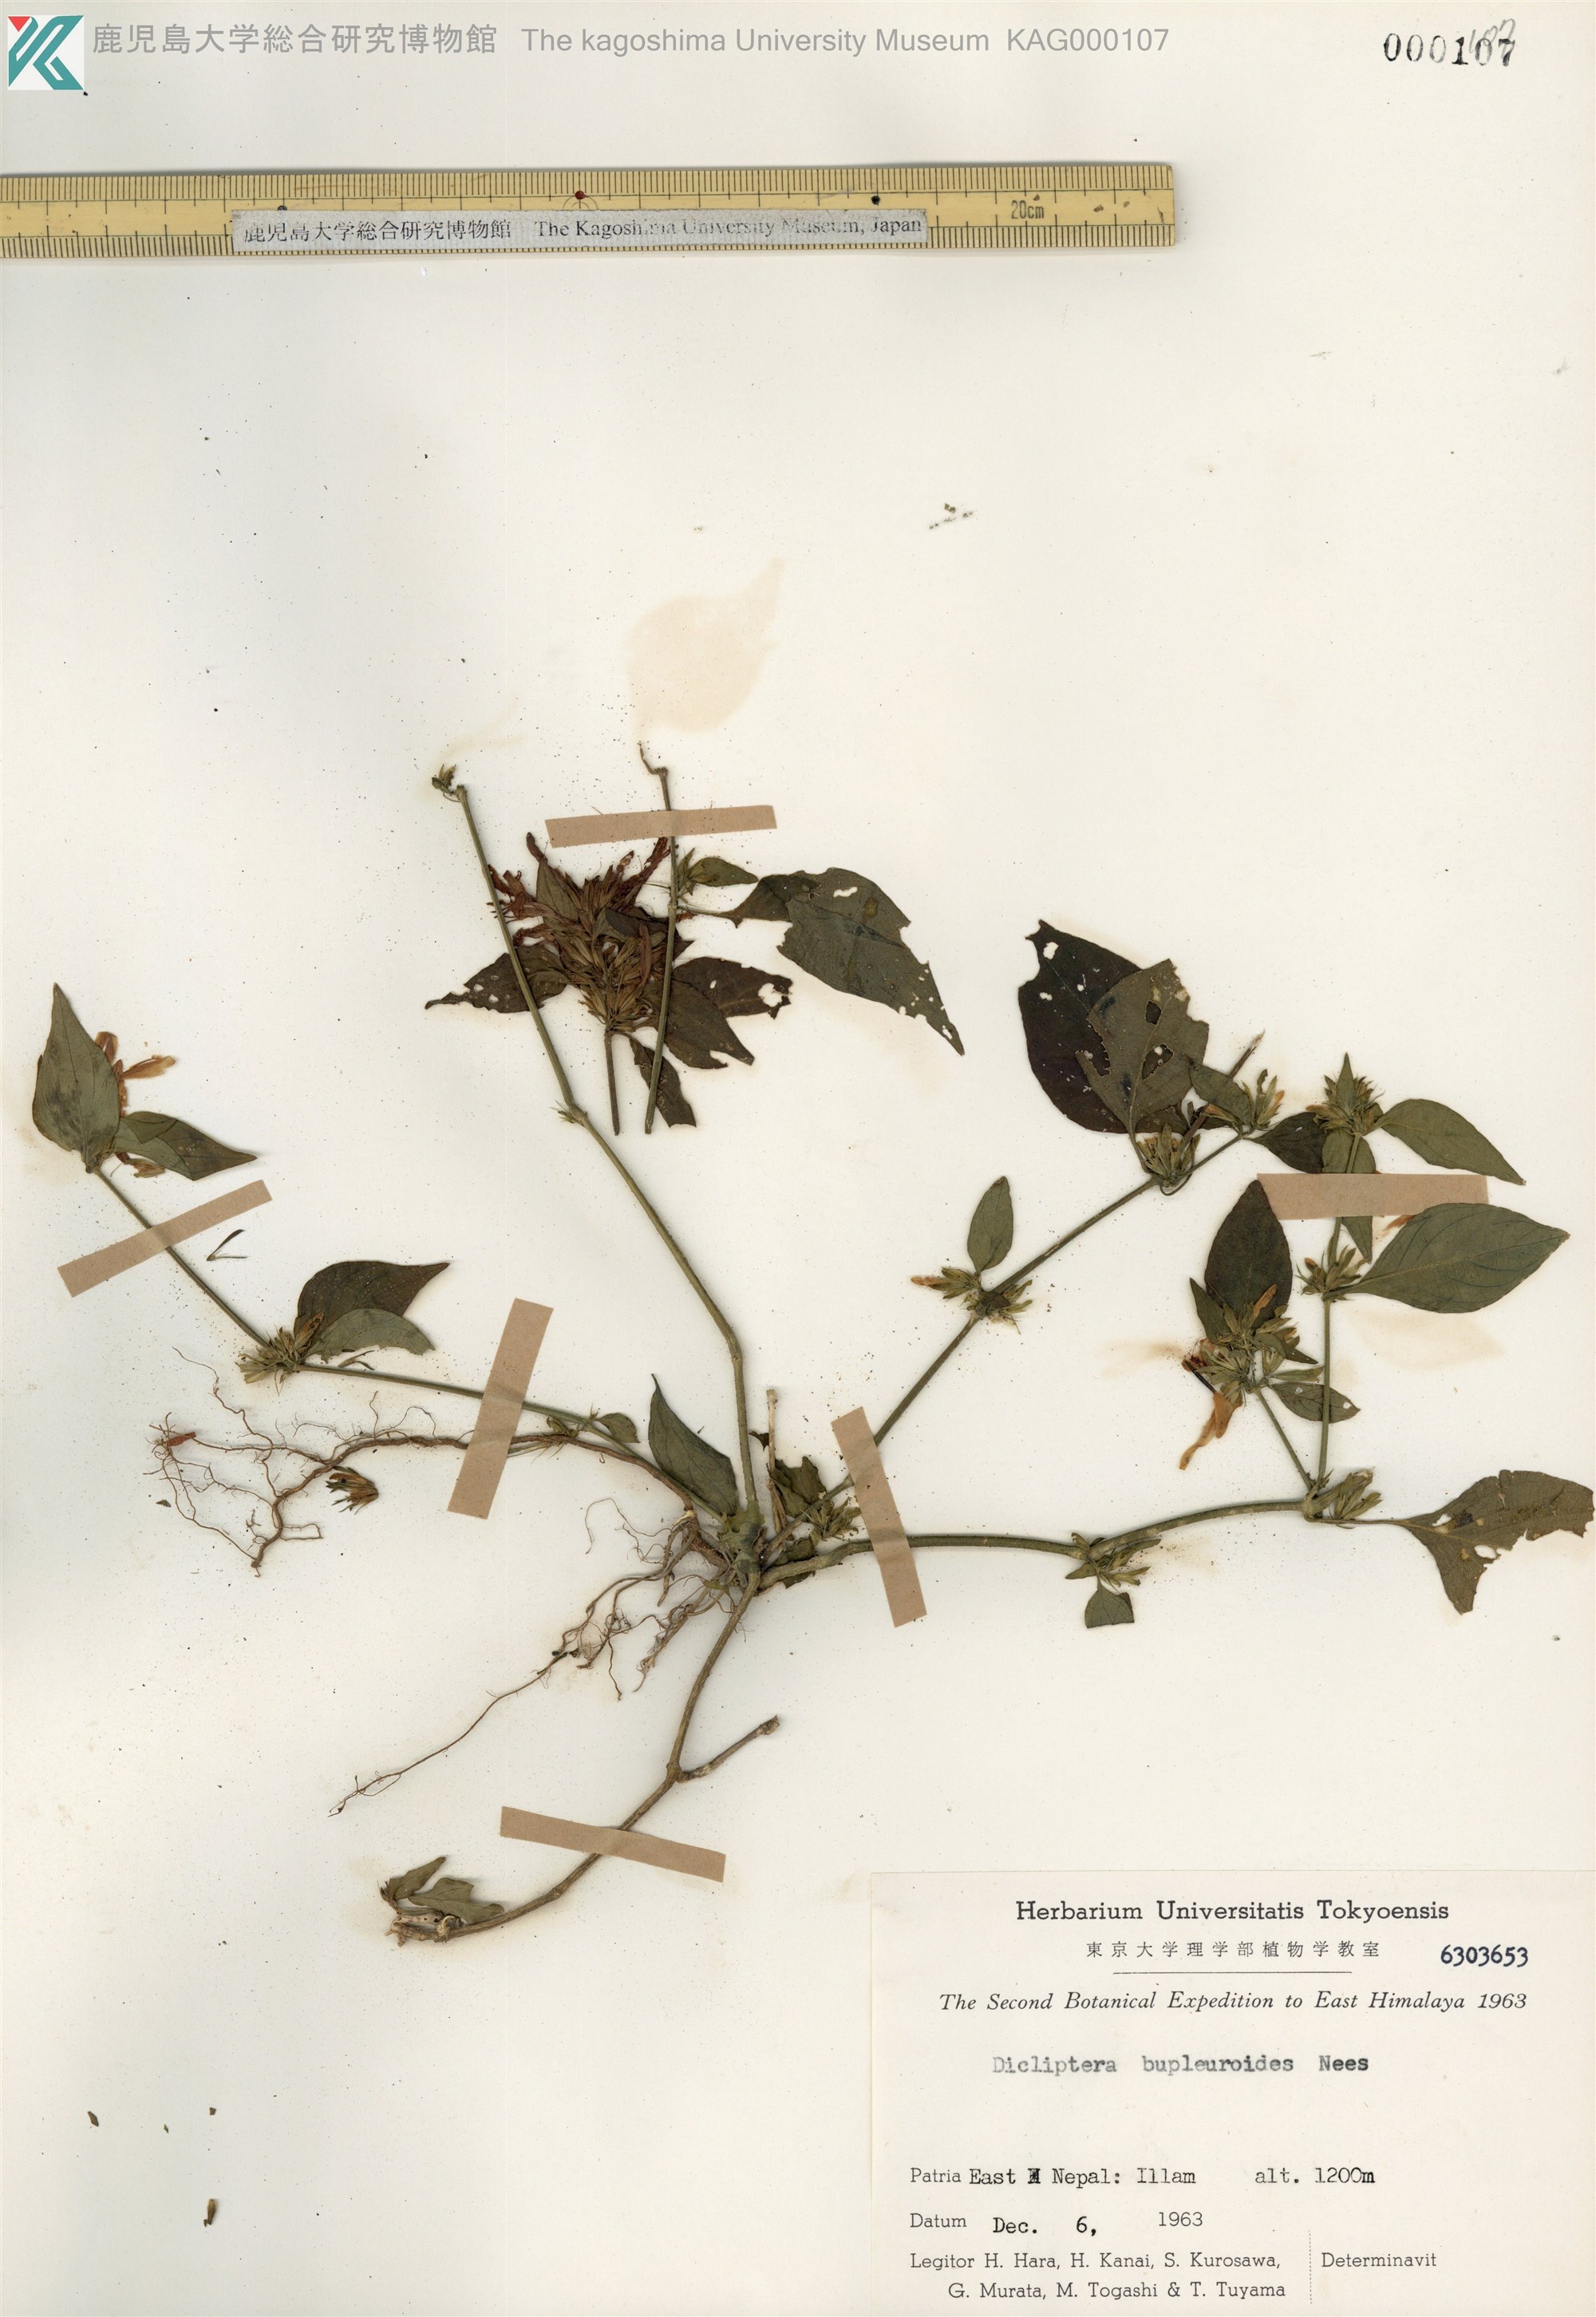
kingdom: Plantae
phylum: Tracheophyta
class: Magnoliopsida
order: Lamiales
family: Acanthaceae
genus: Dicliptera
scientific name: Dicliptera bupleuroides
